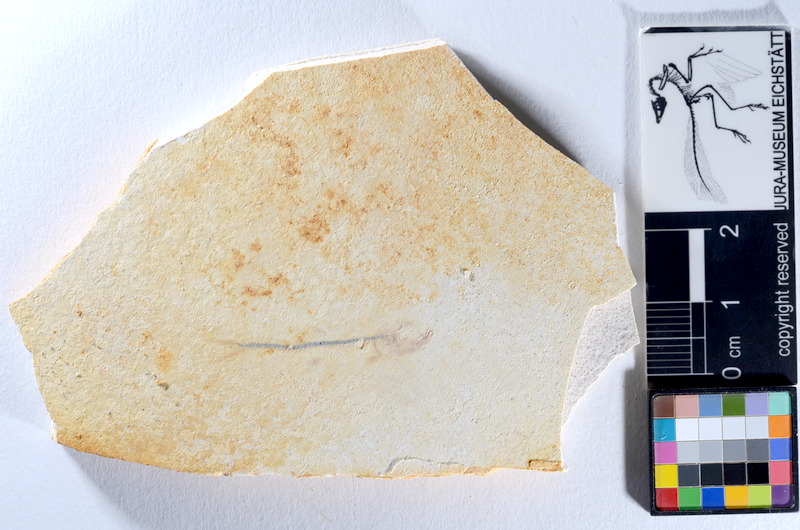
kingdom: Animalia
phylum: Chordata
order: Salmoniformes
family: Orthogonikleithridae
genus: Orthogonikleithrus
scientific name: Orthogonikleithrus hoelli
